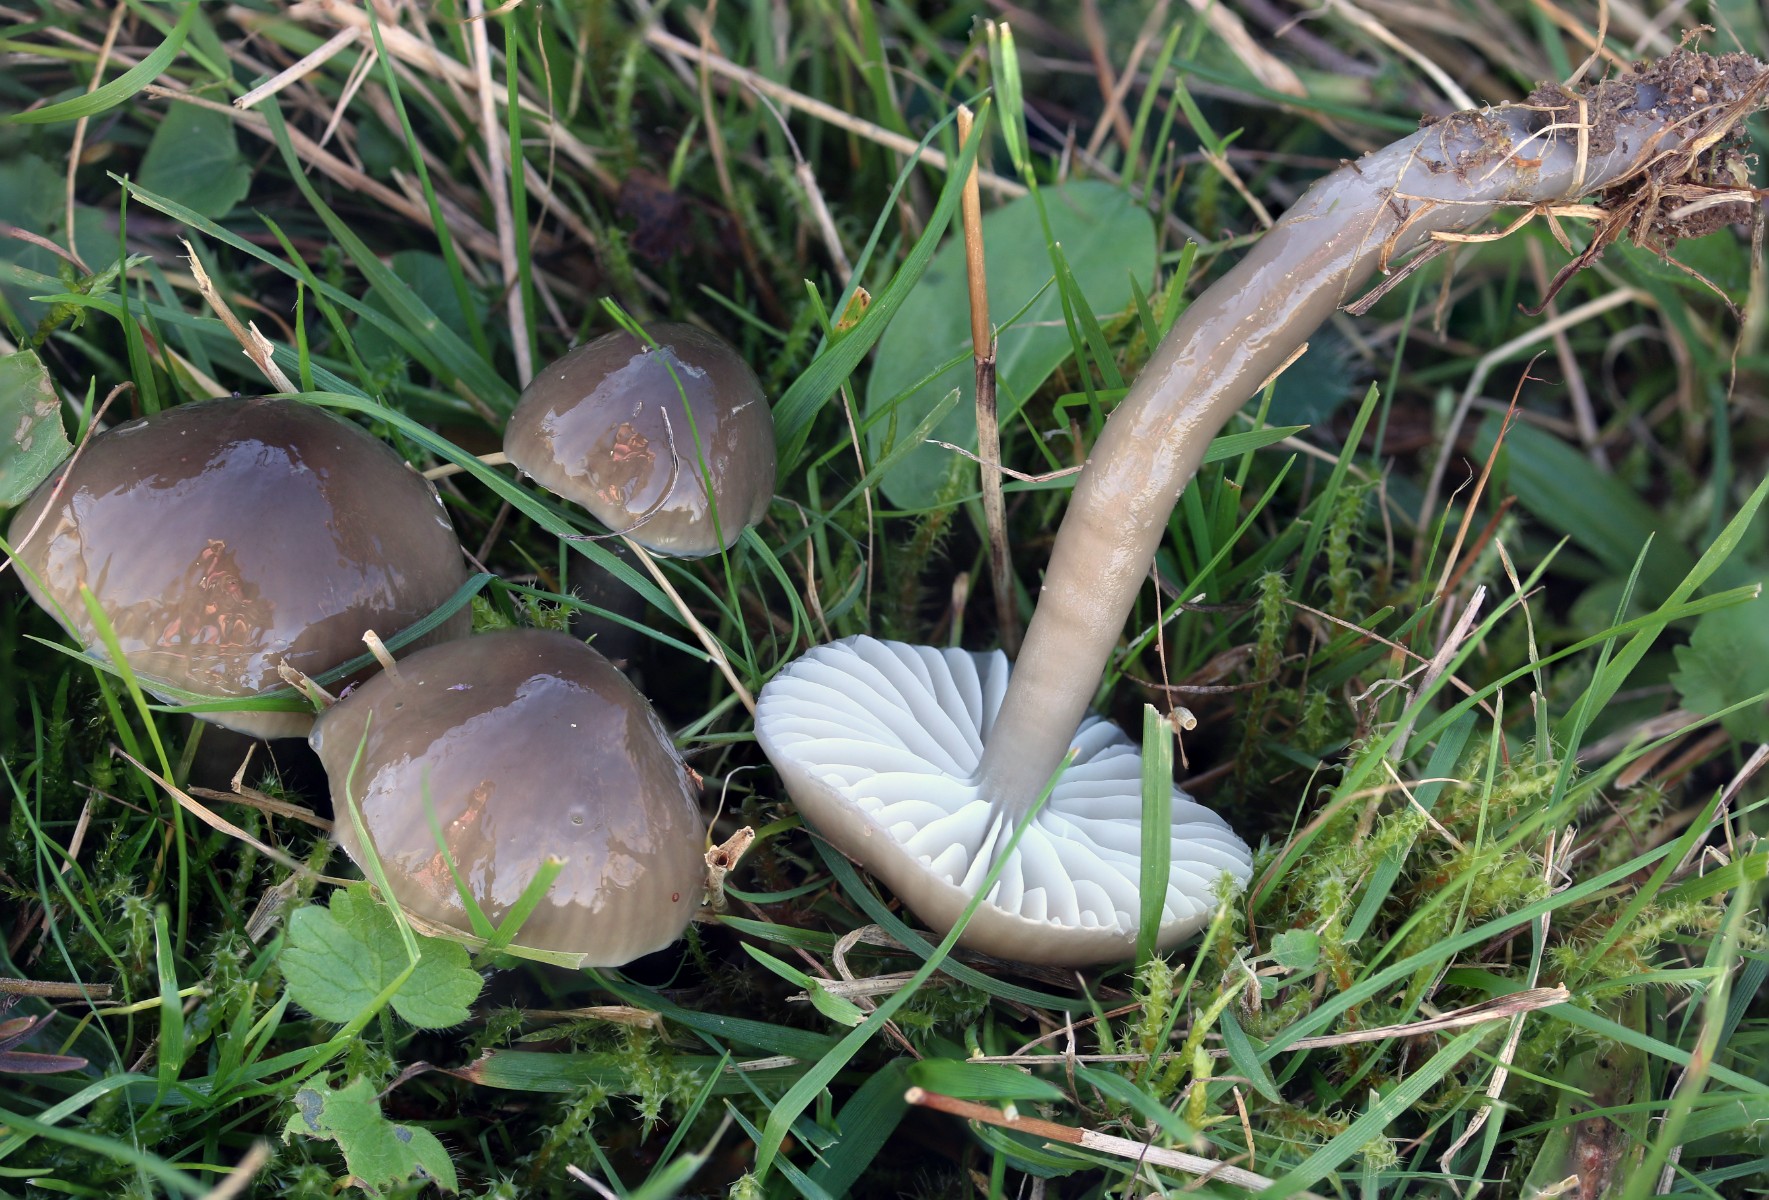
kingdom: Fungi
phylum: Basidiomycota
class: Agaricomycetes
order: Agaricales
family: Hygrophoraceae
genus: Gliophorus
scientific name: Gliophorus irrigatus
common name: slimet vokshat
